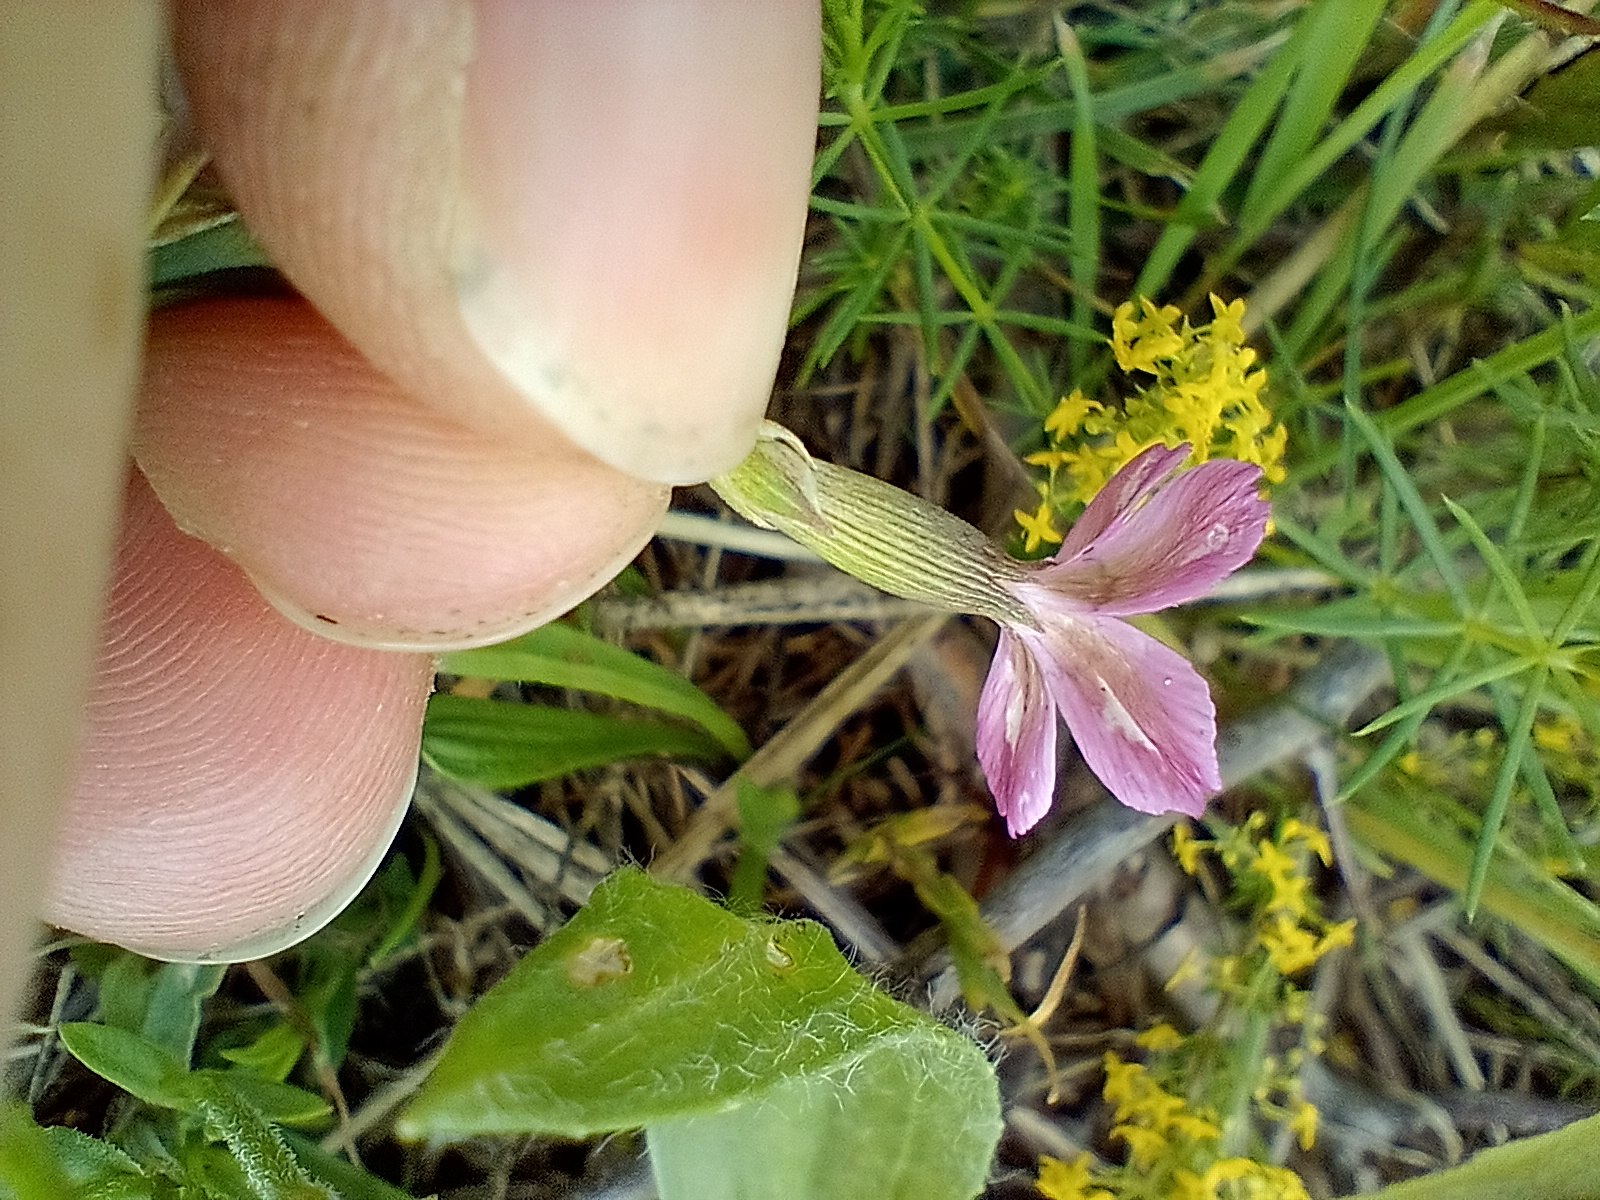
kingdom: Plantae
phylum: Tracheophyta
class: Magnoliopsida
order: Caryophyllales
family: Caryophyllaceae
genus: Dianthus
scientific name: Dianthus deltoides
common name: Bakke-nellike
